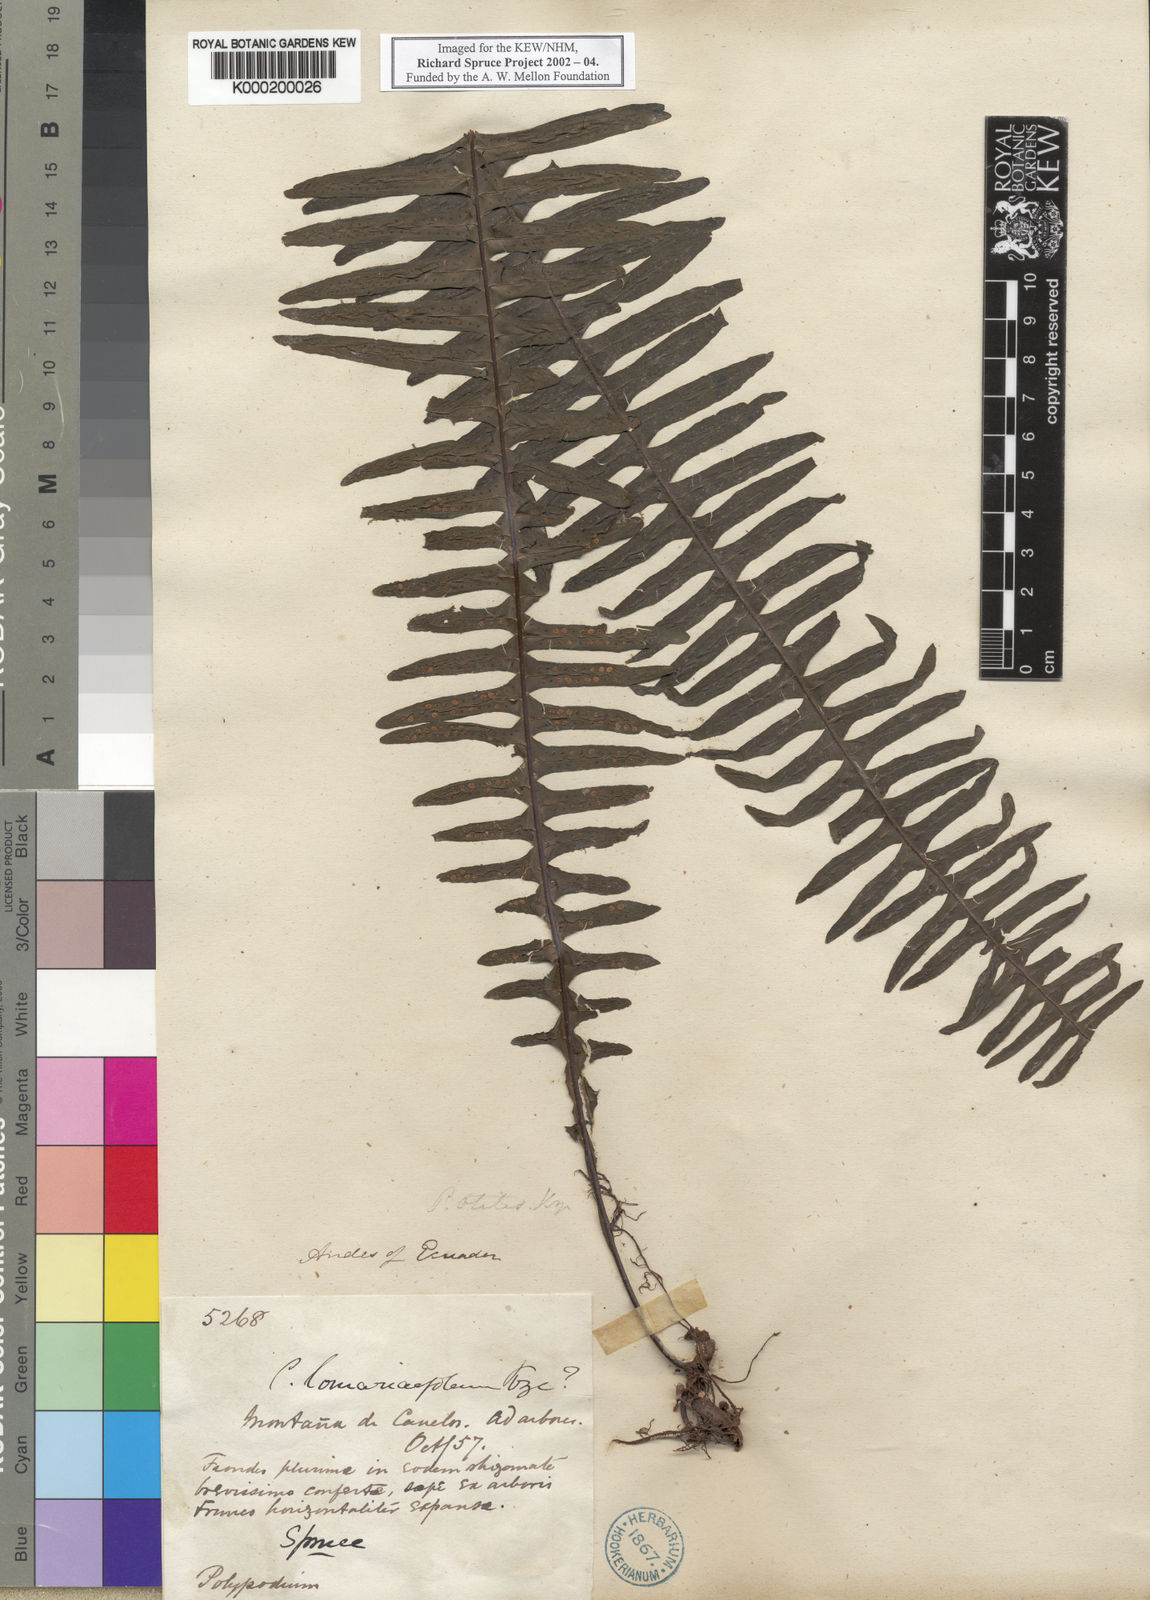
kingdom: Plantae
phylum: Tracheophyta
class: Polypodiopsida
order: Polypodiales
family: Polypodiaceae
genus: Pecluma
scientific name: Pecluma eurybasis
